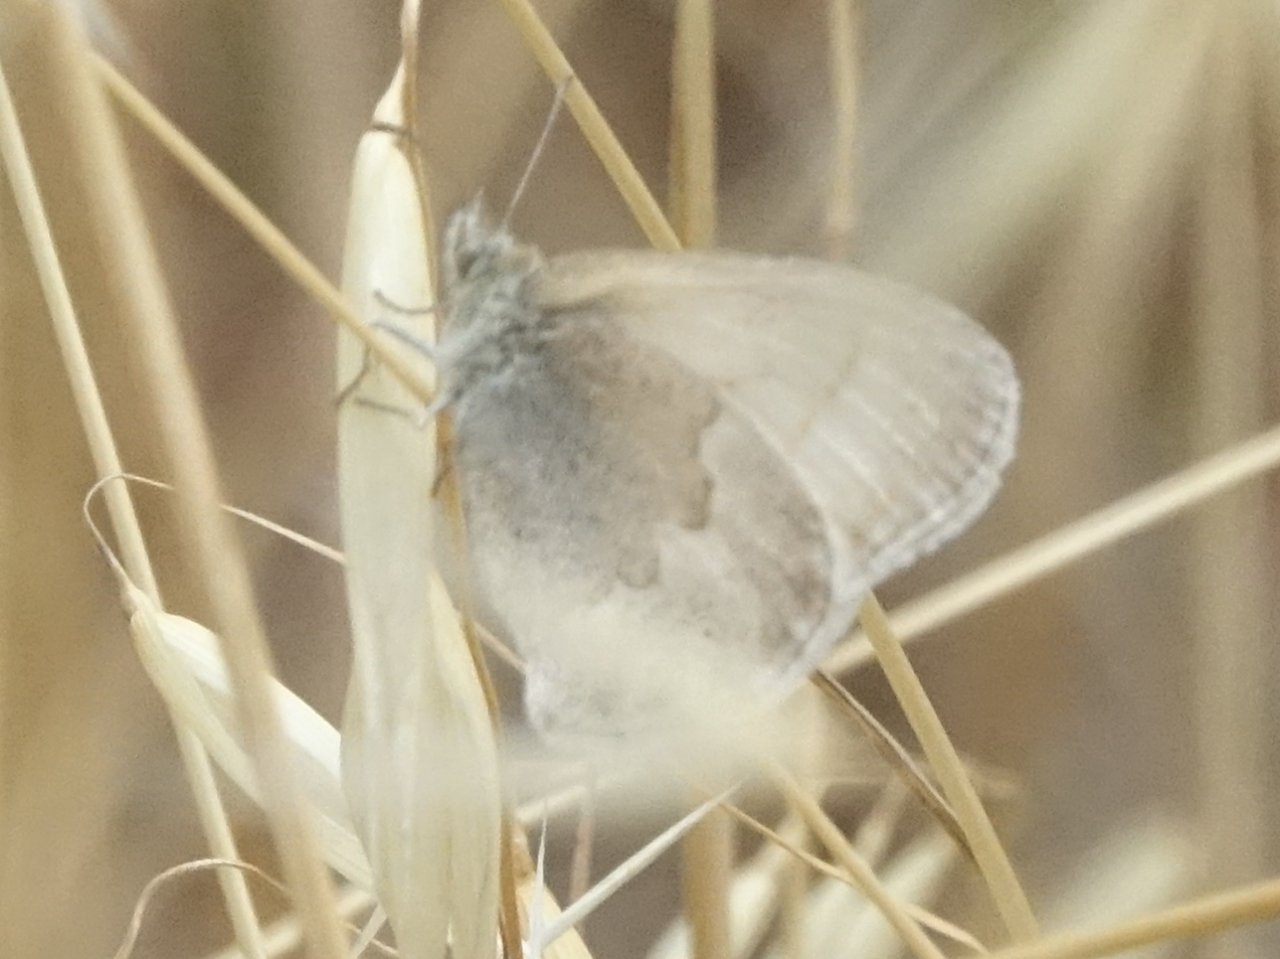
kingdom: Animalia
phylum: Arthropoda
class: Insecta
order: Lepidoptera
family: Nymphalidae
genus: Coenonympha
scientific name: Coenonympha tullia
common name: Large Heath
